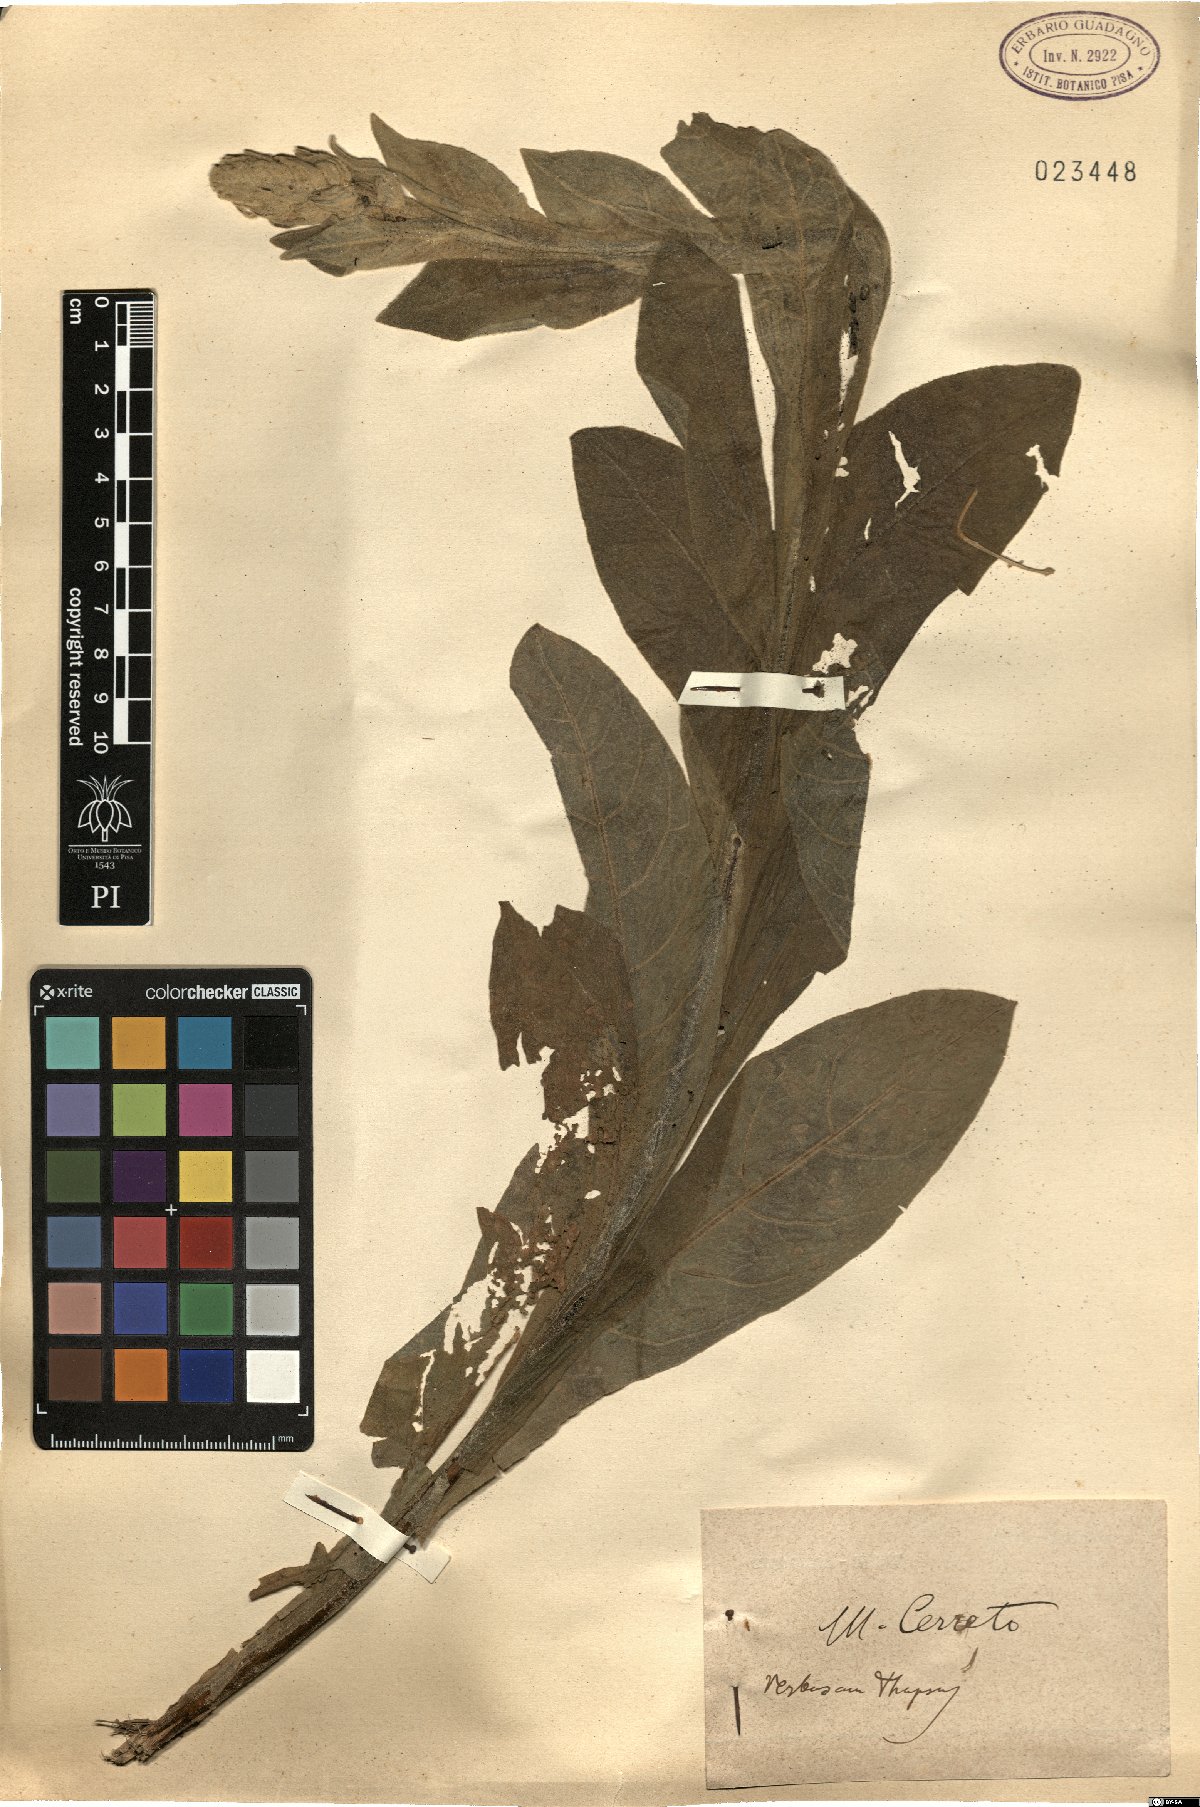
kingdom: Plantae
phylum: Tracheophyta
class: Magnoliopsida
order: Lamiales
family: Scrophulariaceae
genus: Verbascum
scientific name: Verbascum thapsus
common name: Common mullein
